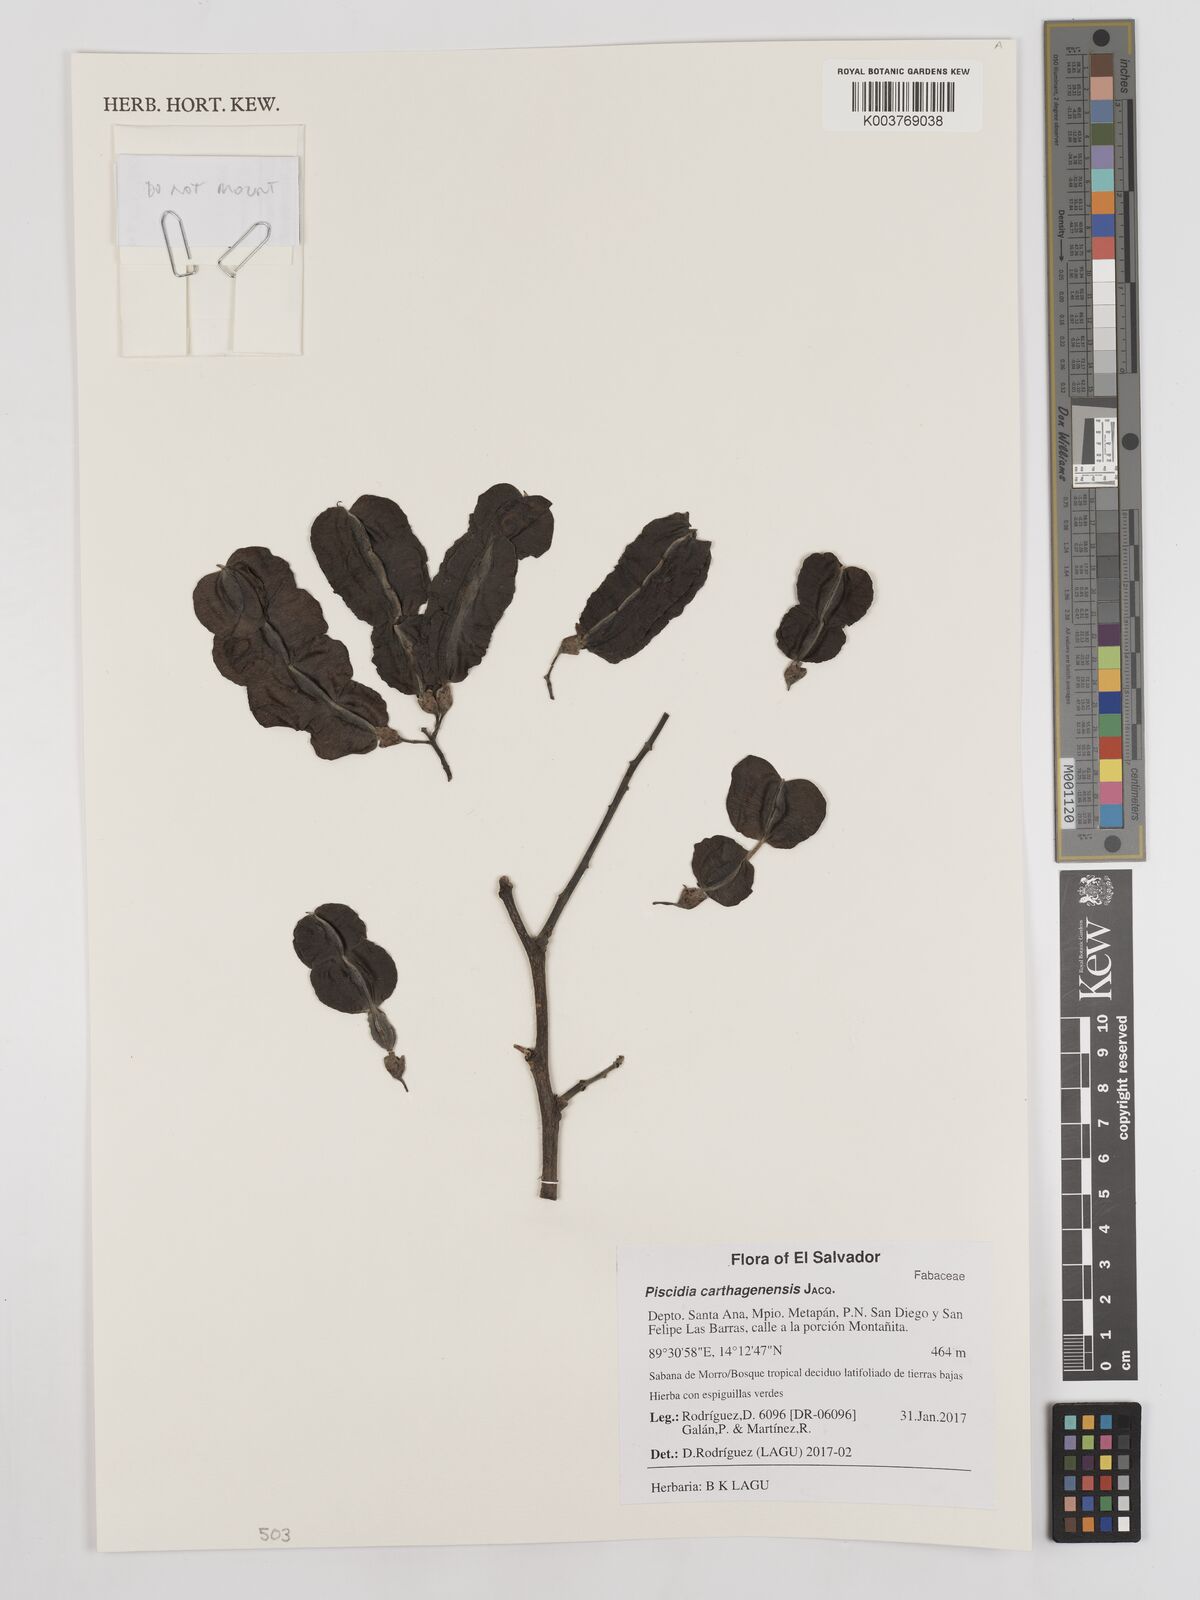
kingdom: Plantae
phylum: Tracheophyta
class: Magnoliopsida
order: Fabales
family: Fabaceae
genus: Piscidia
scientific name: Piscidia carthagenensis
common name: Stinkwood
